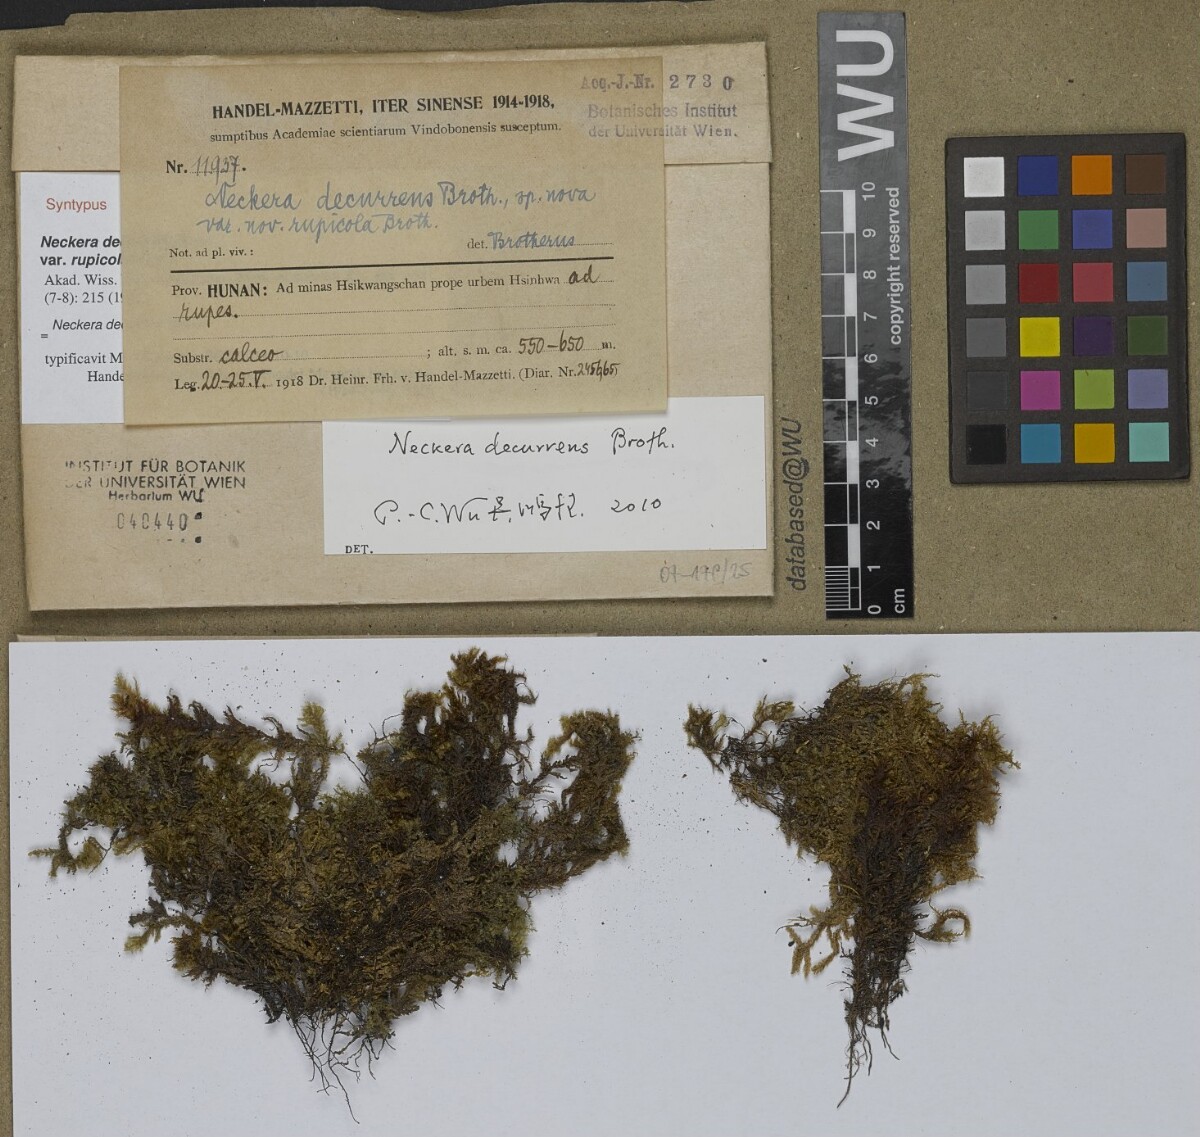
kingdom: Plantae
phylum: Bryophyta
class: Bryopsida
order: Hypnales
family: Neckeraceae
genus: Forsstroemia
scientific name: Forsstroemia fauriei
